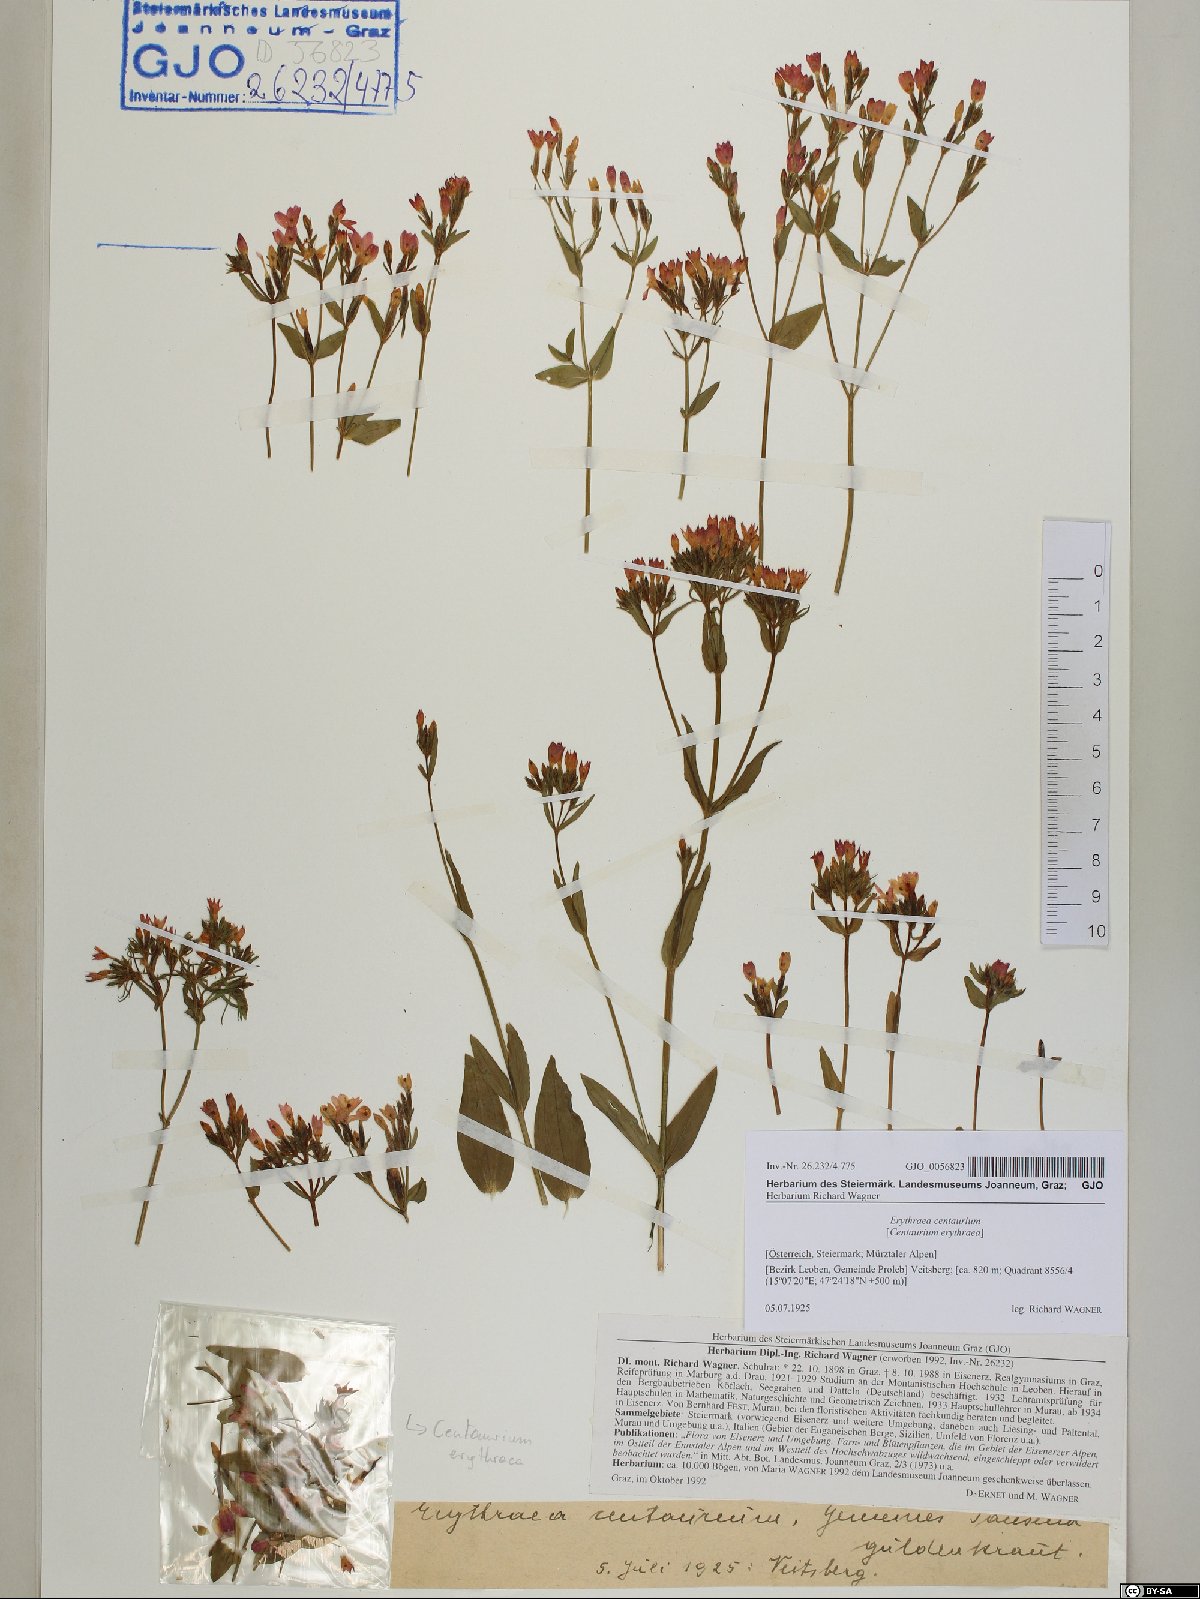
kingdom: Plantae
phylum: Tracheophyta
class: Magnoliopsida
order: Gentianales
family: Gentianaceae
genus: Centaurium
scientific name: Centaurium erythraea
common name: Common centaury
